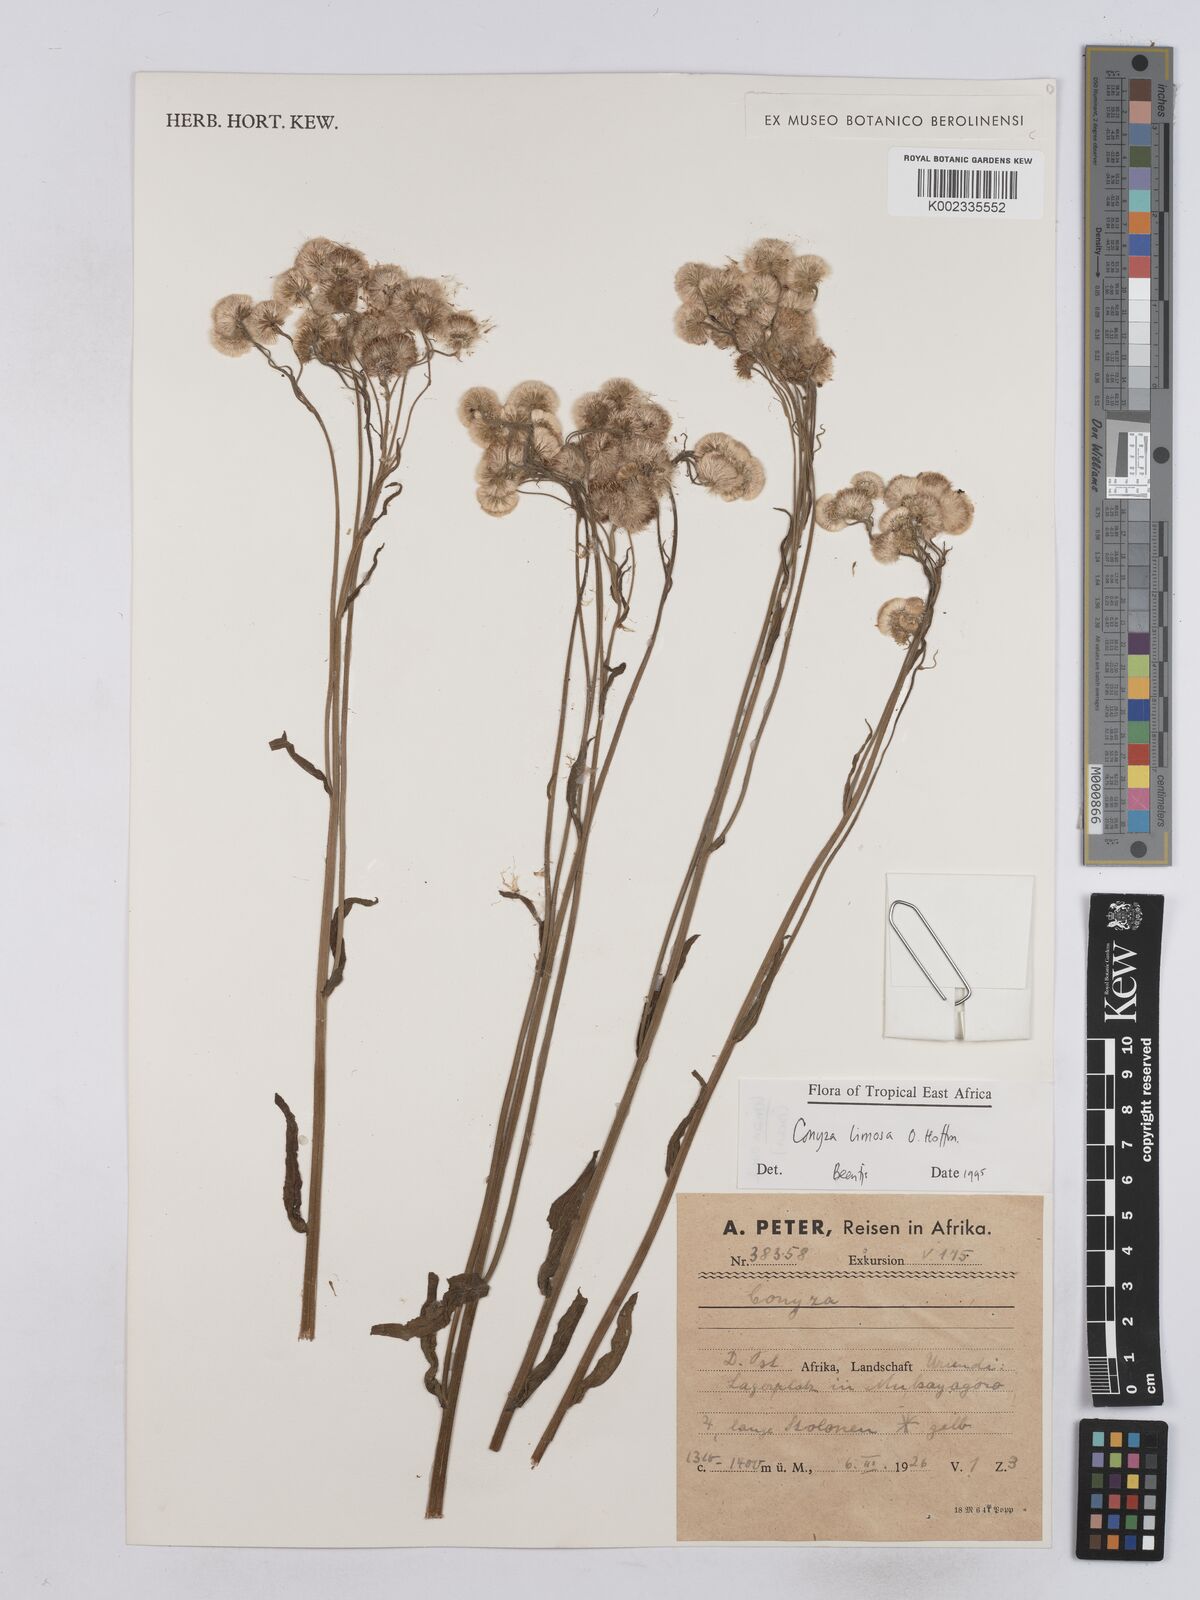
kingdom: Plantae
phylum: Tracheophyta
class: Magnoliopsida
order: Asterales
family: Asteraceae
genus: Conyza
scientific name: Conyza limosa
